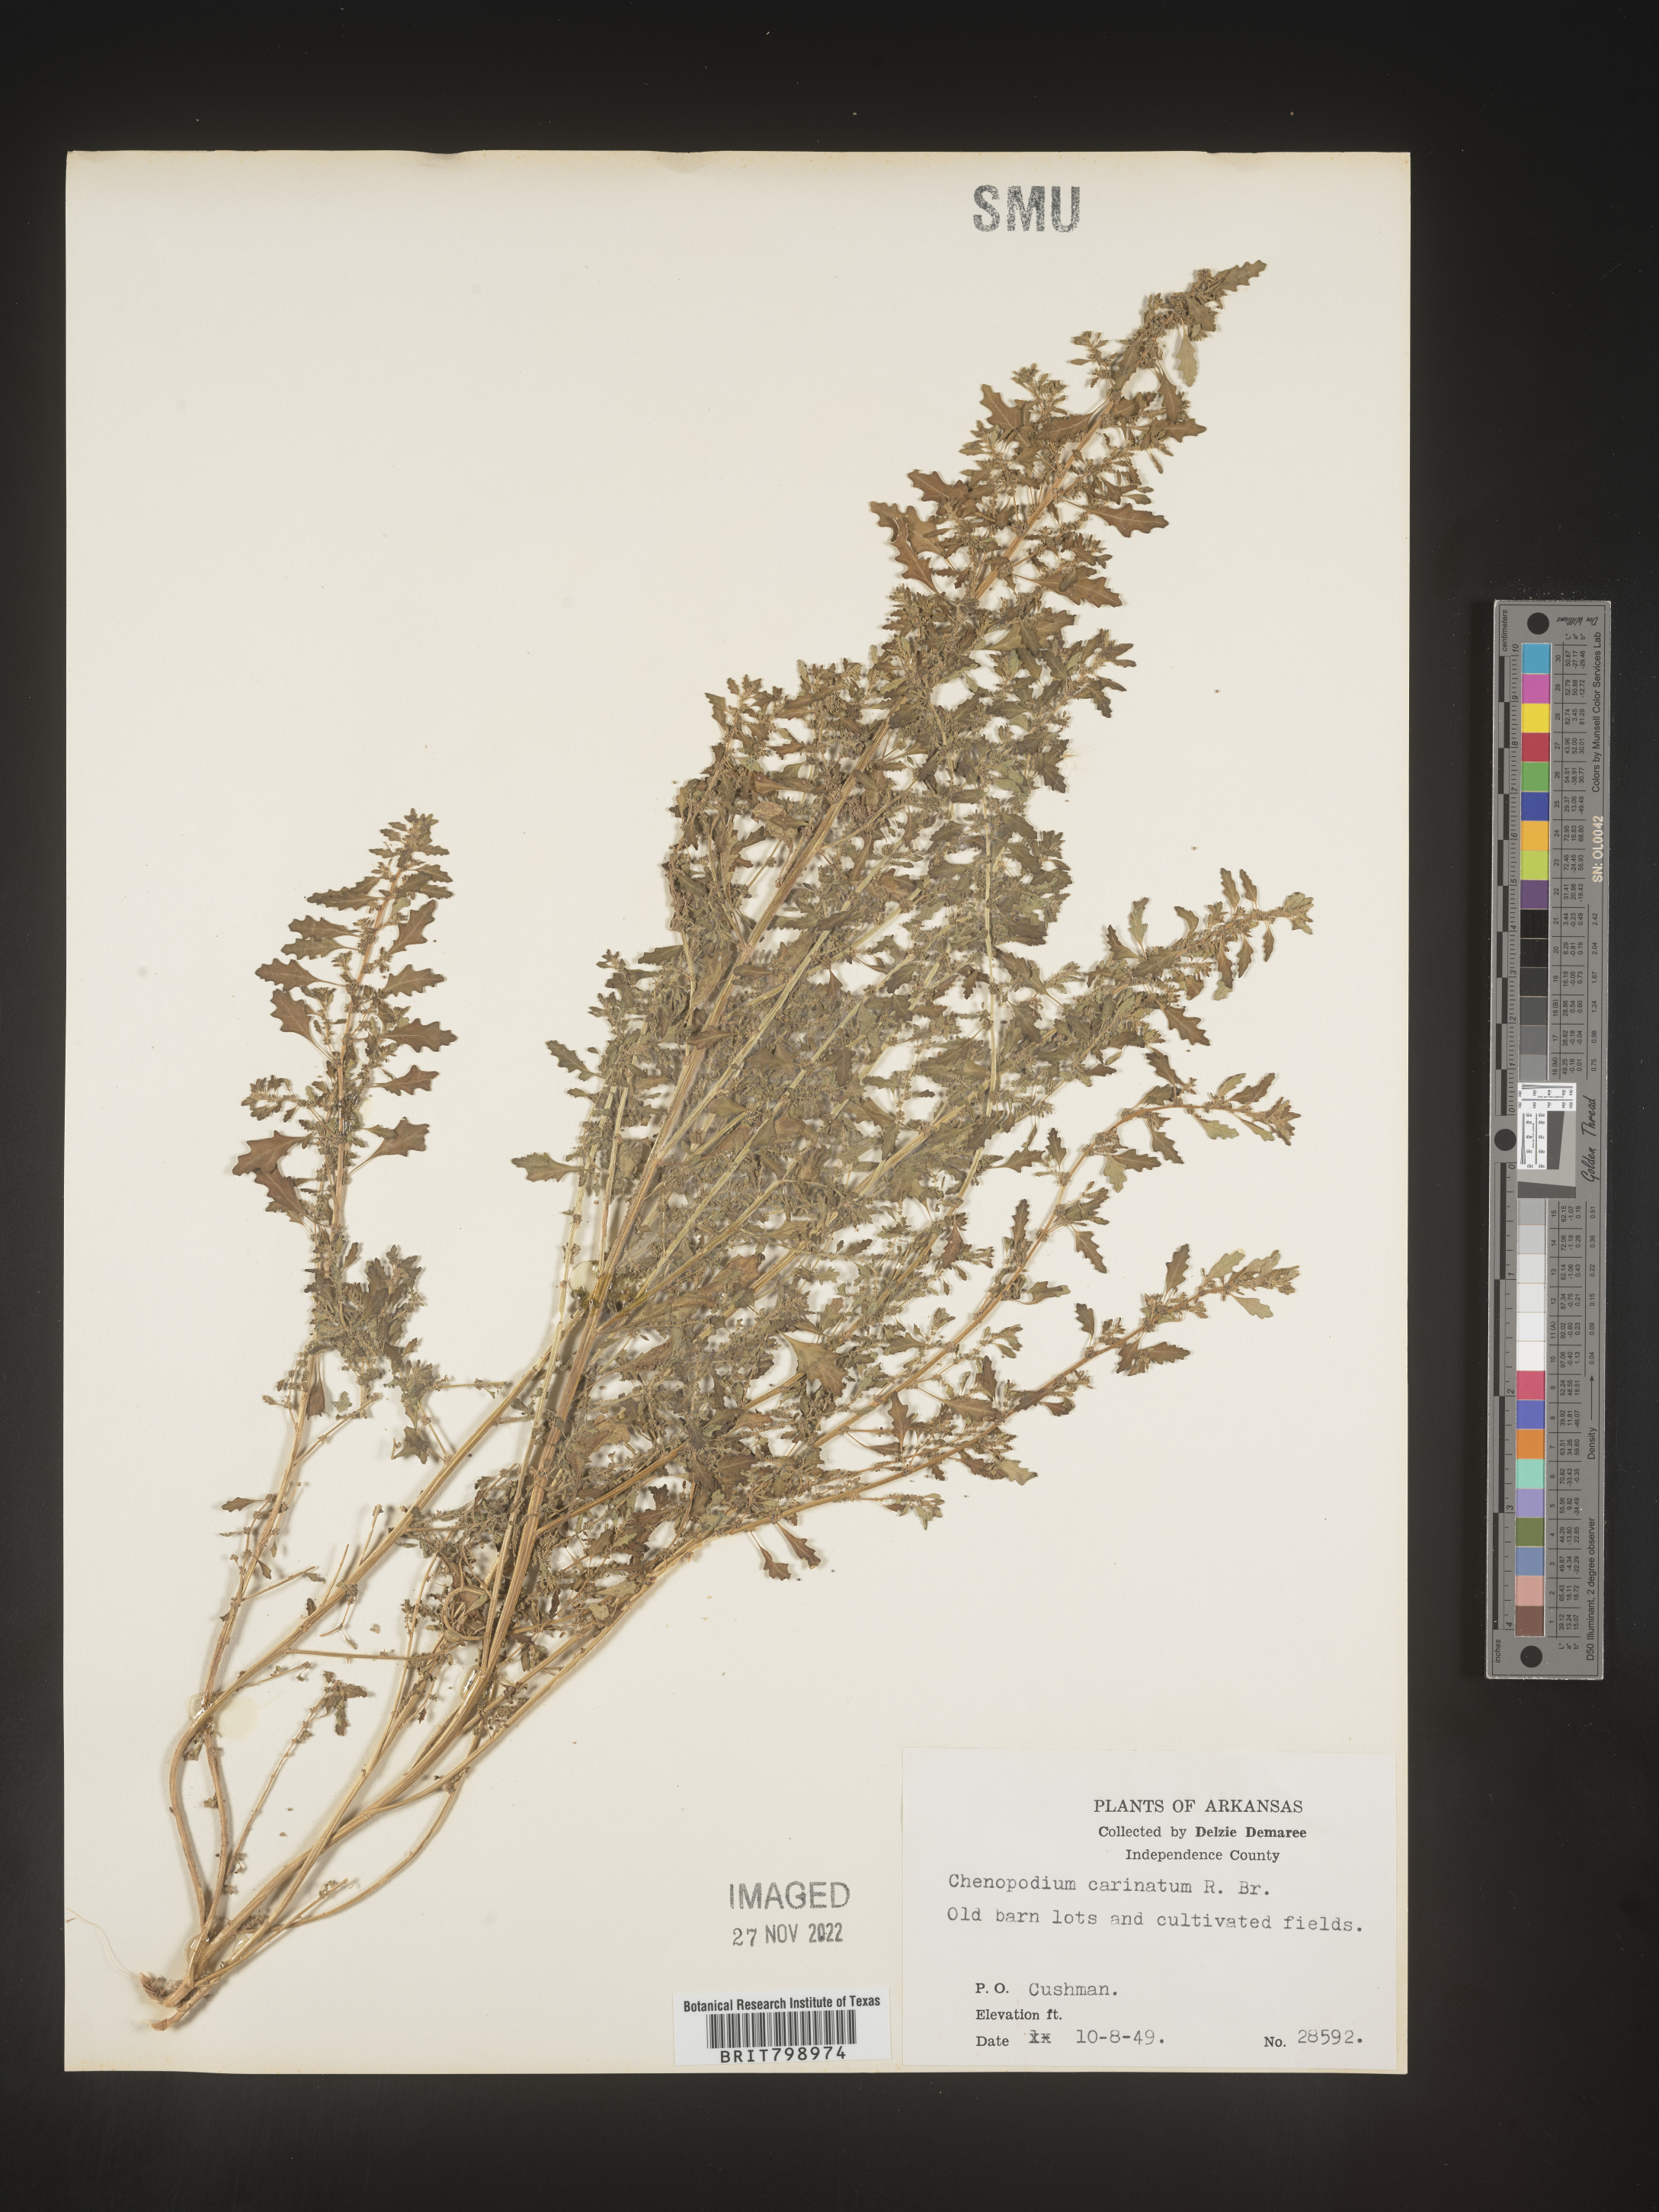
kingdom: Plantae
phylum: Tracheophyta
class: Magnoliopsida
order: Caryophyllales
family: Amaranthaceae
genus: Dysphania
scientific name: Dysphania pumilio
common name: Clammy goosefoot
